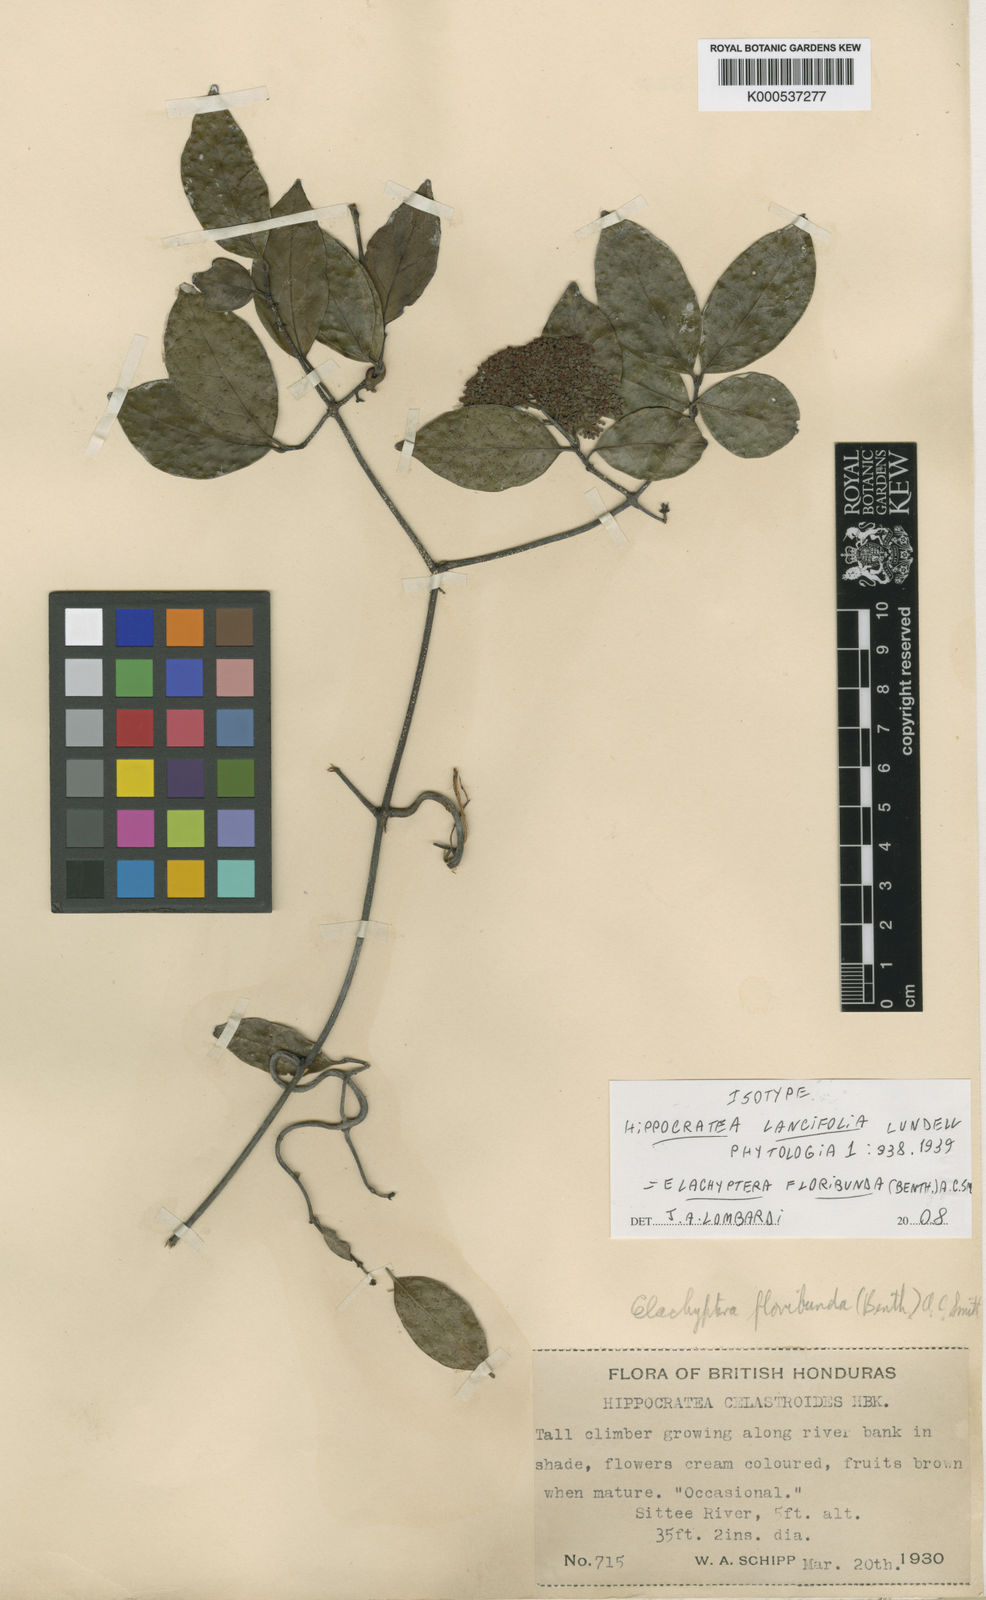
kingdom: Plantae
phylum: Tracheophyta
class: Magnoliopsida
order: Celastrales
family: Celastraceae
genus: Elachyptera
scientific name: Elachyptera floribunda
